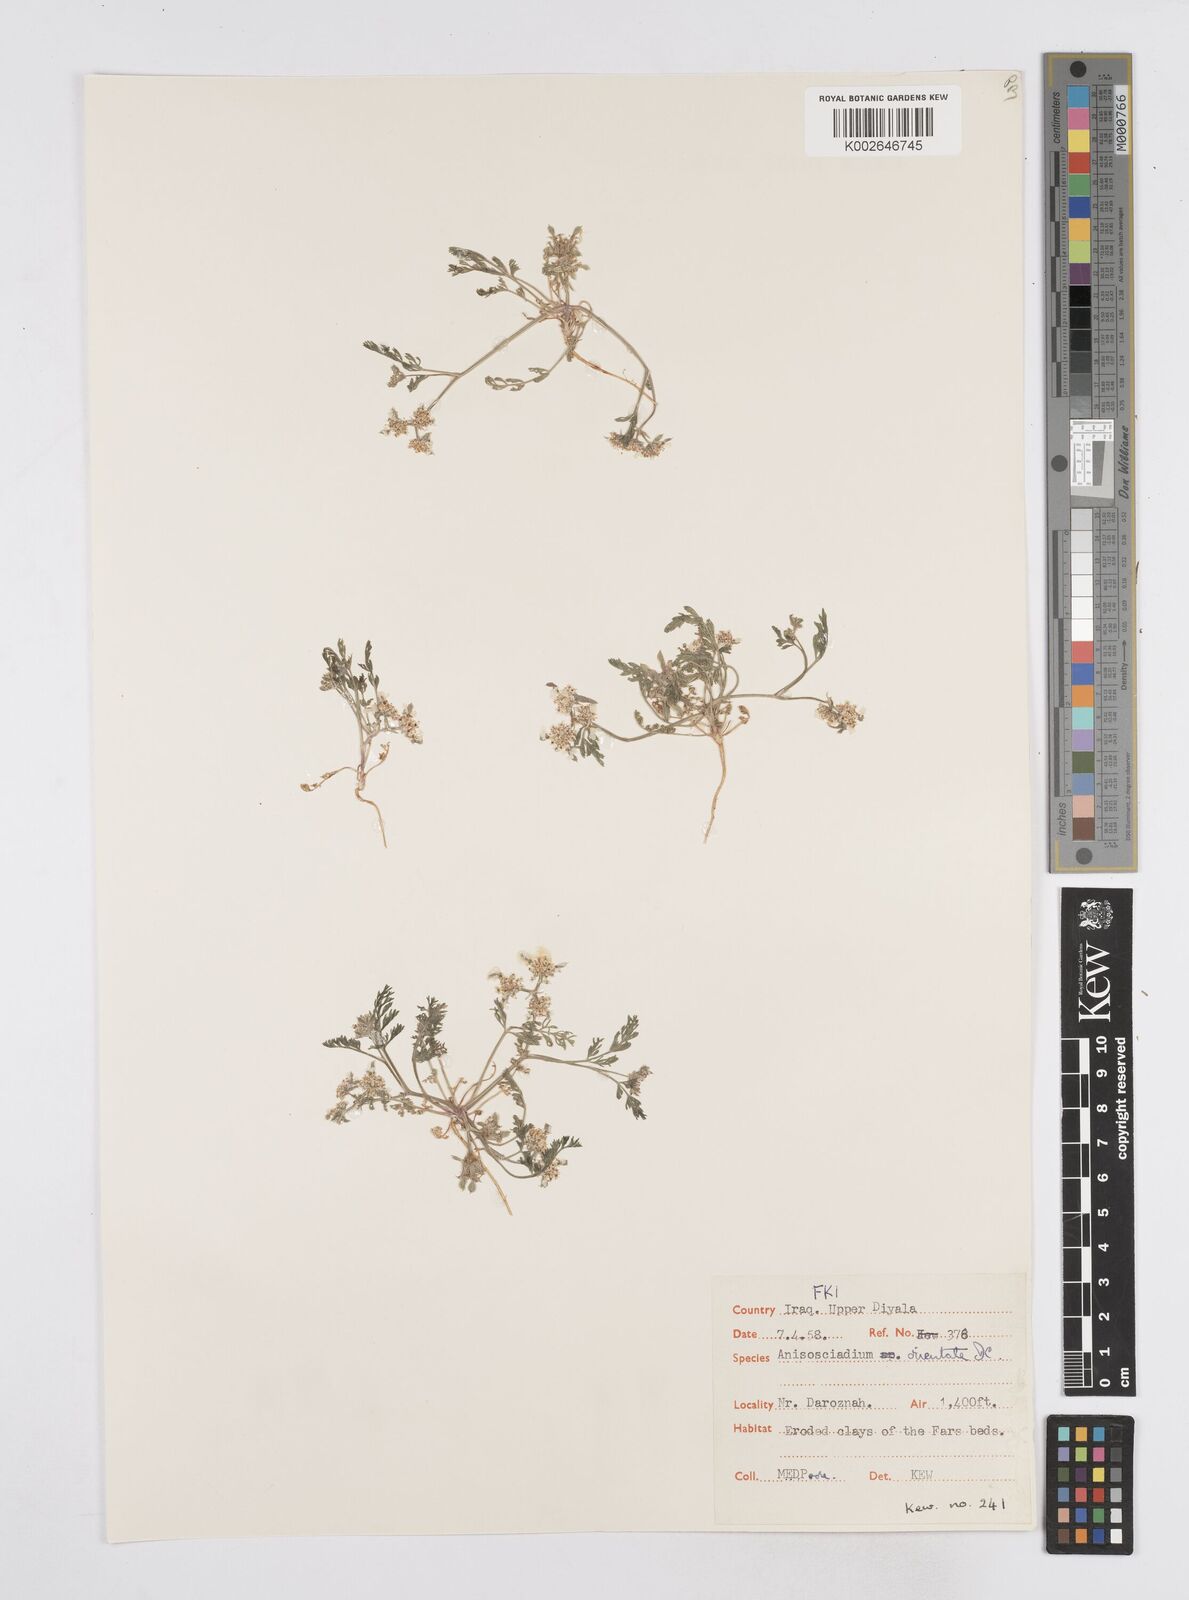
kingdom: Plantae
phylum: Tracheophyta
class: Magnoliopsida
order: Apiales
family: Apiaceae
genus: Anisosciadium
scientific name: Anisosciadium orientale
